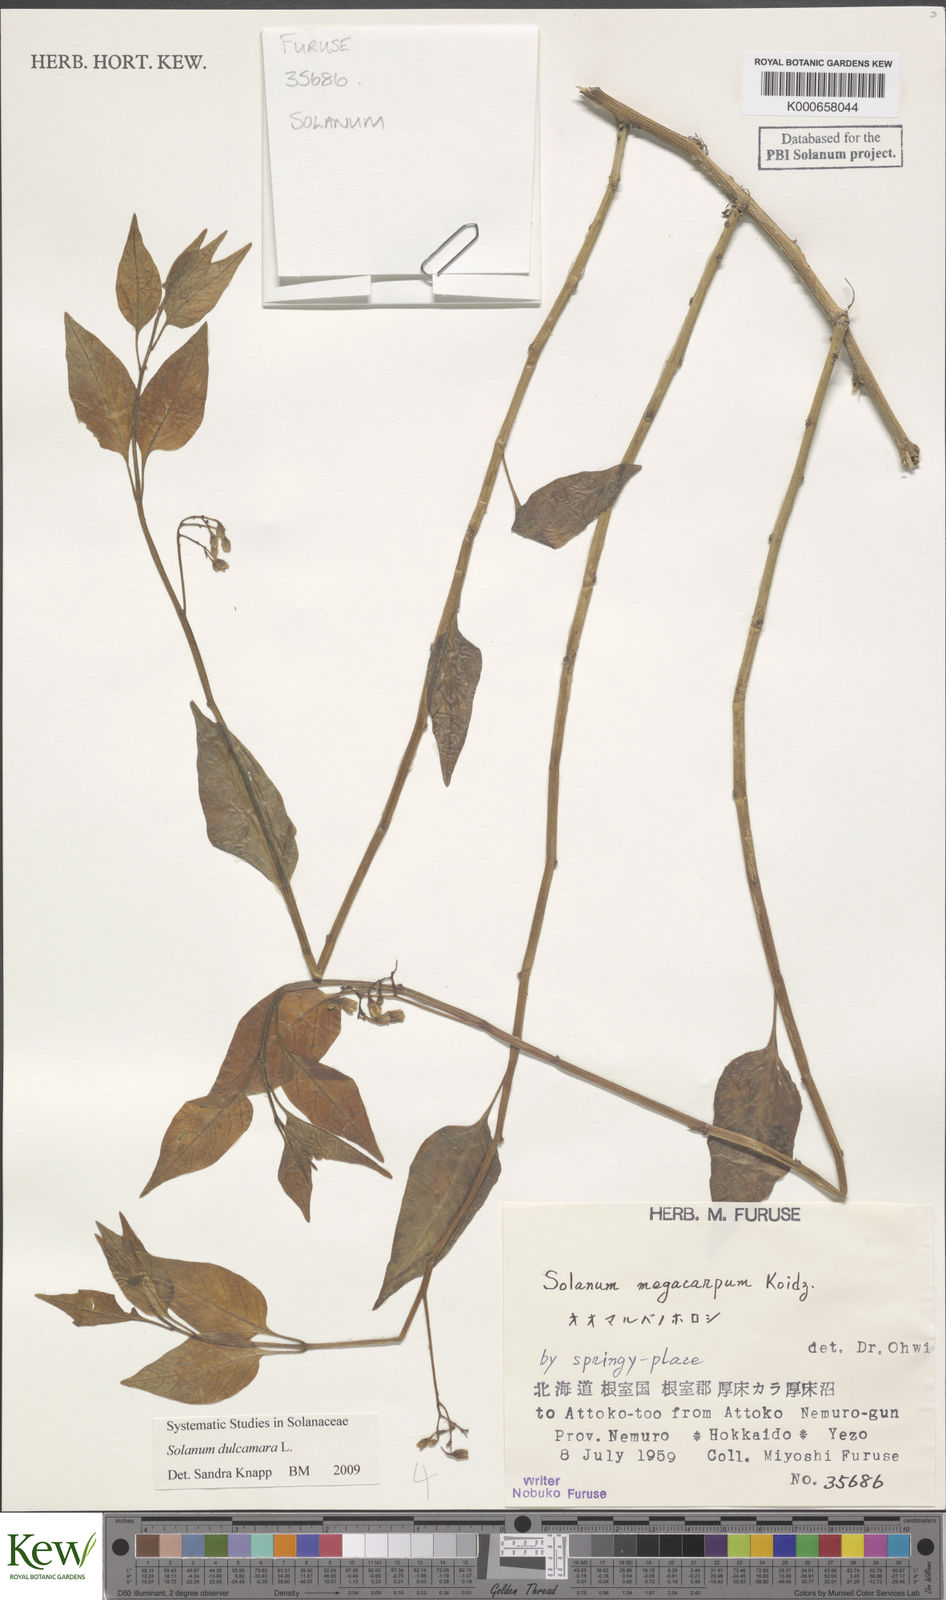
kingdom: Plantae
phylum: Tracheophyta
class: Magnoliopsida
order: Solanales
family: Solanaceae
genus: Solanum
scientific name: Solanum dulcamara
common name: Climbing nightshade
